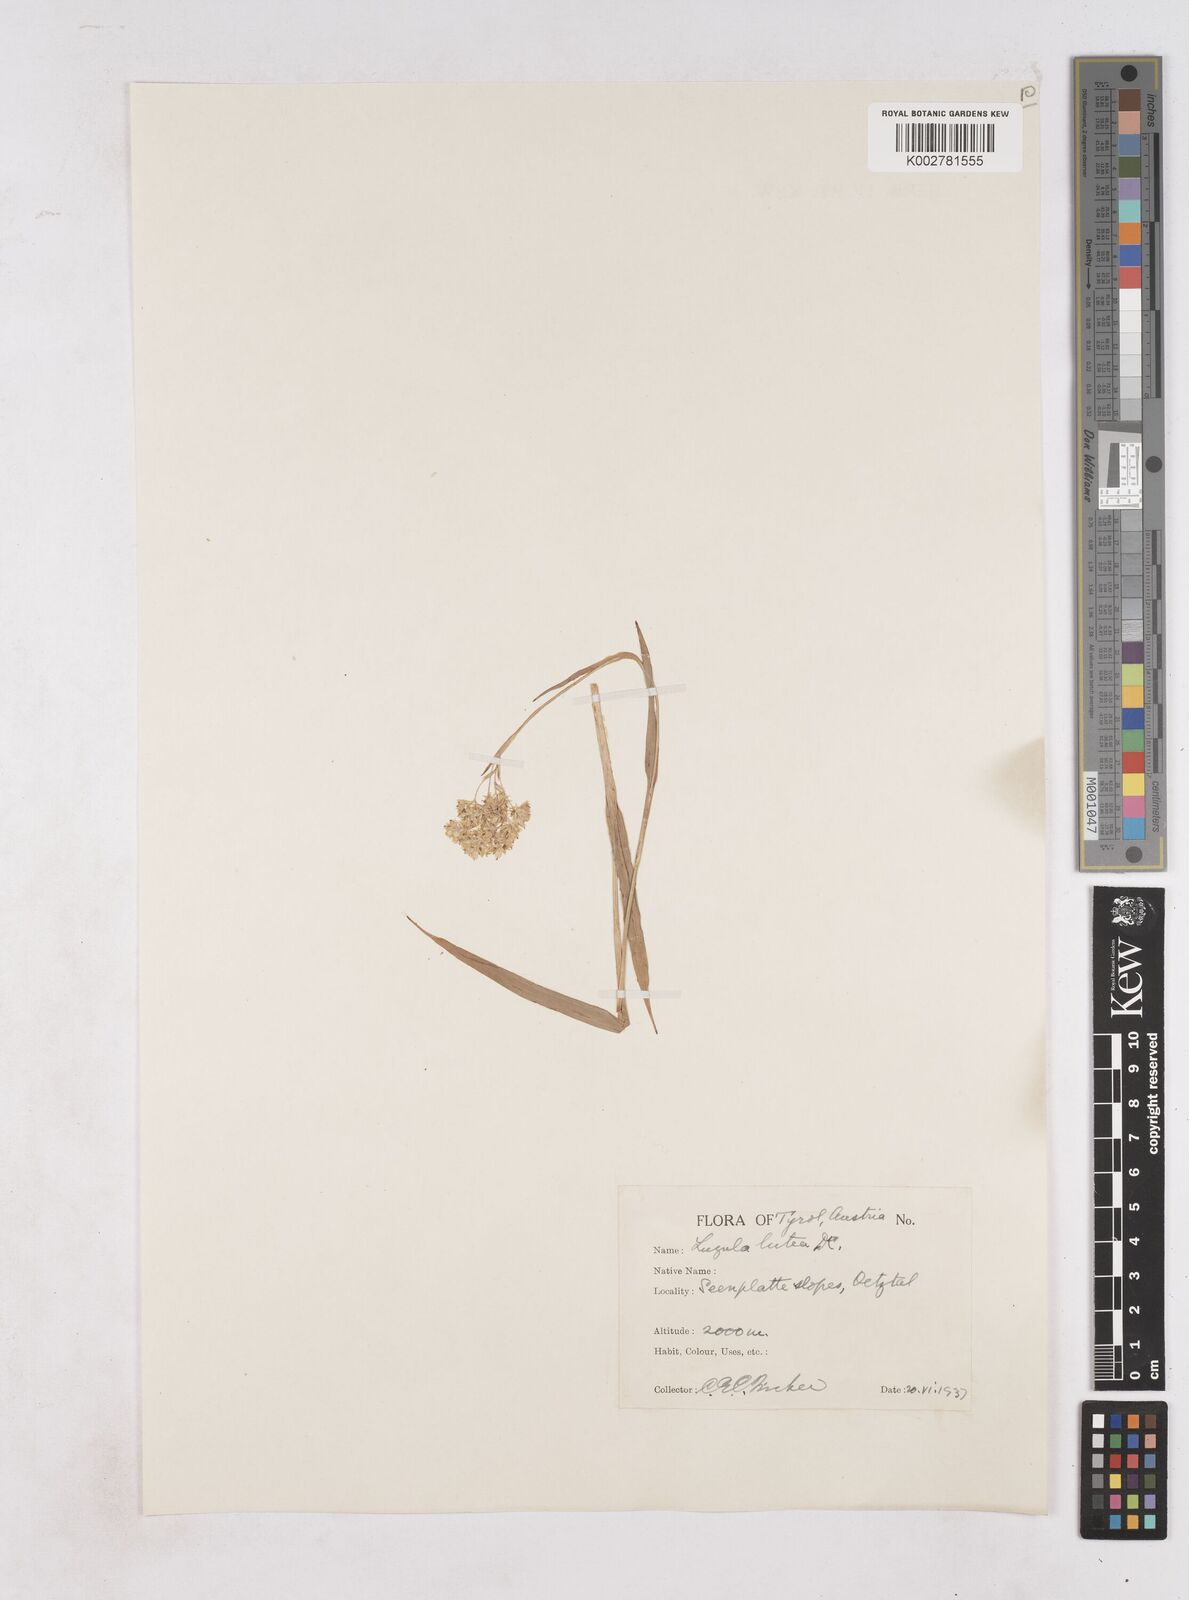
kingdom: Plantae
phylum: Tracheophyta
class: Liliopsida
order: Poales
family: Juncaceae
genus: Luzula
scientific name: Luzula lutea
